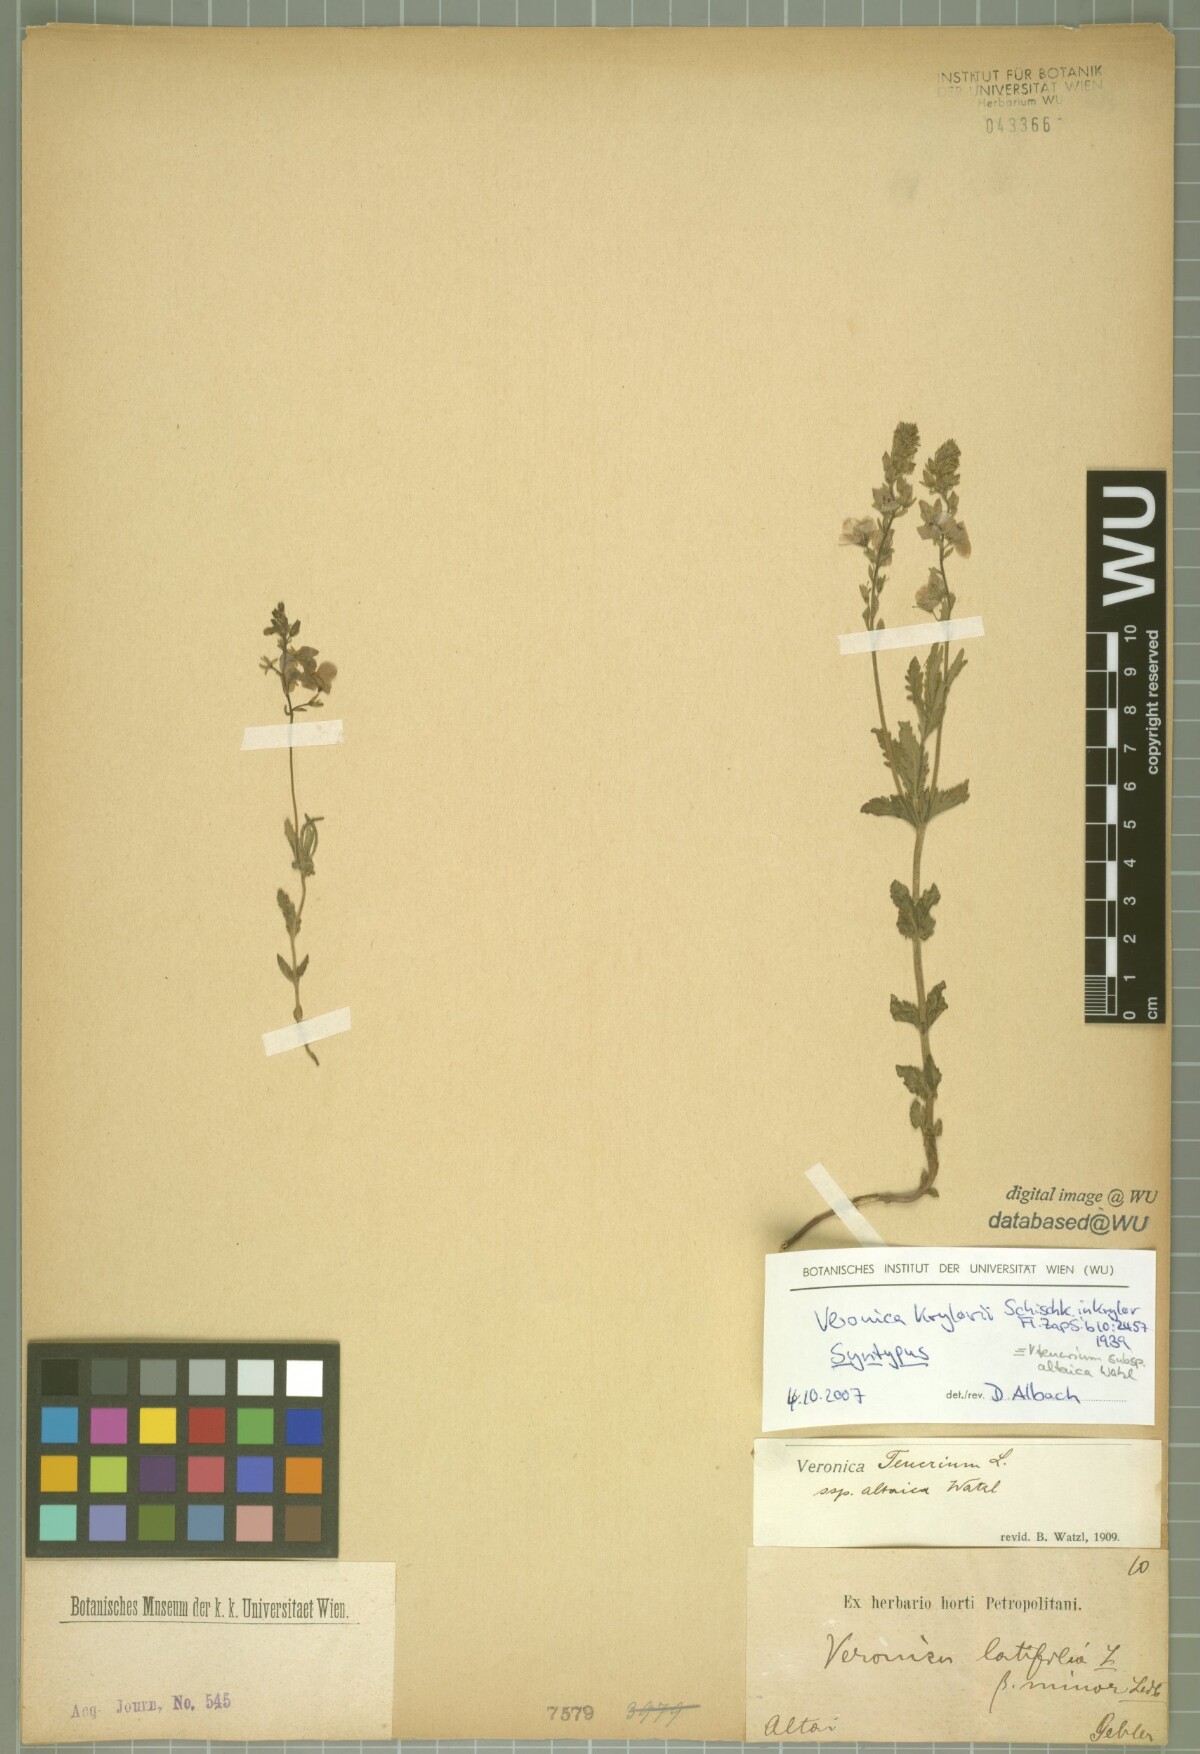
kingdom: Plantae
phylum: Tracheophyta
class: Magnoliopsida
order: Lamiales
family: Plantaginaceae
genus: Veronica
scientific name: Veronica krylovii
